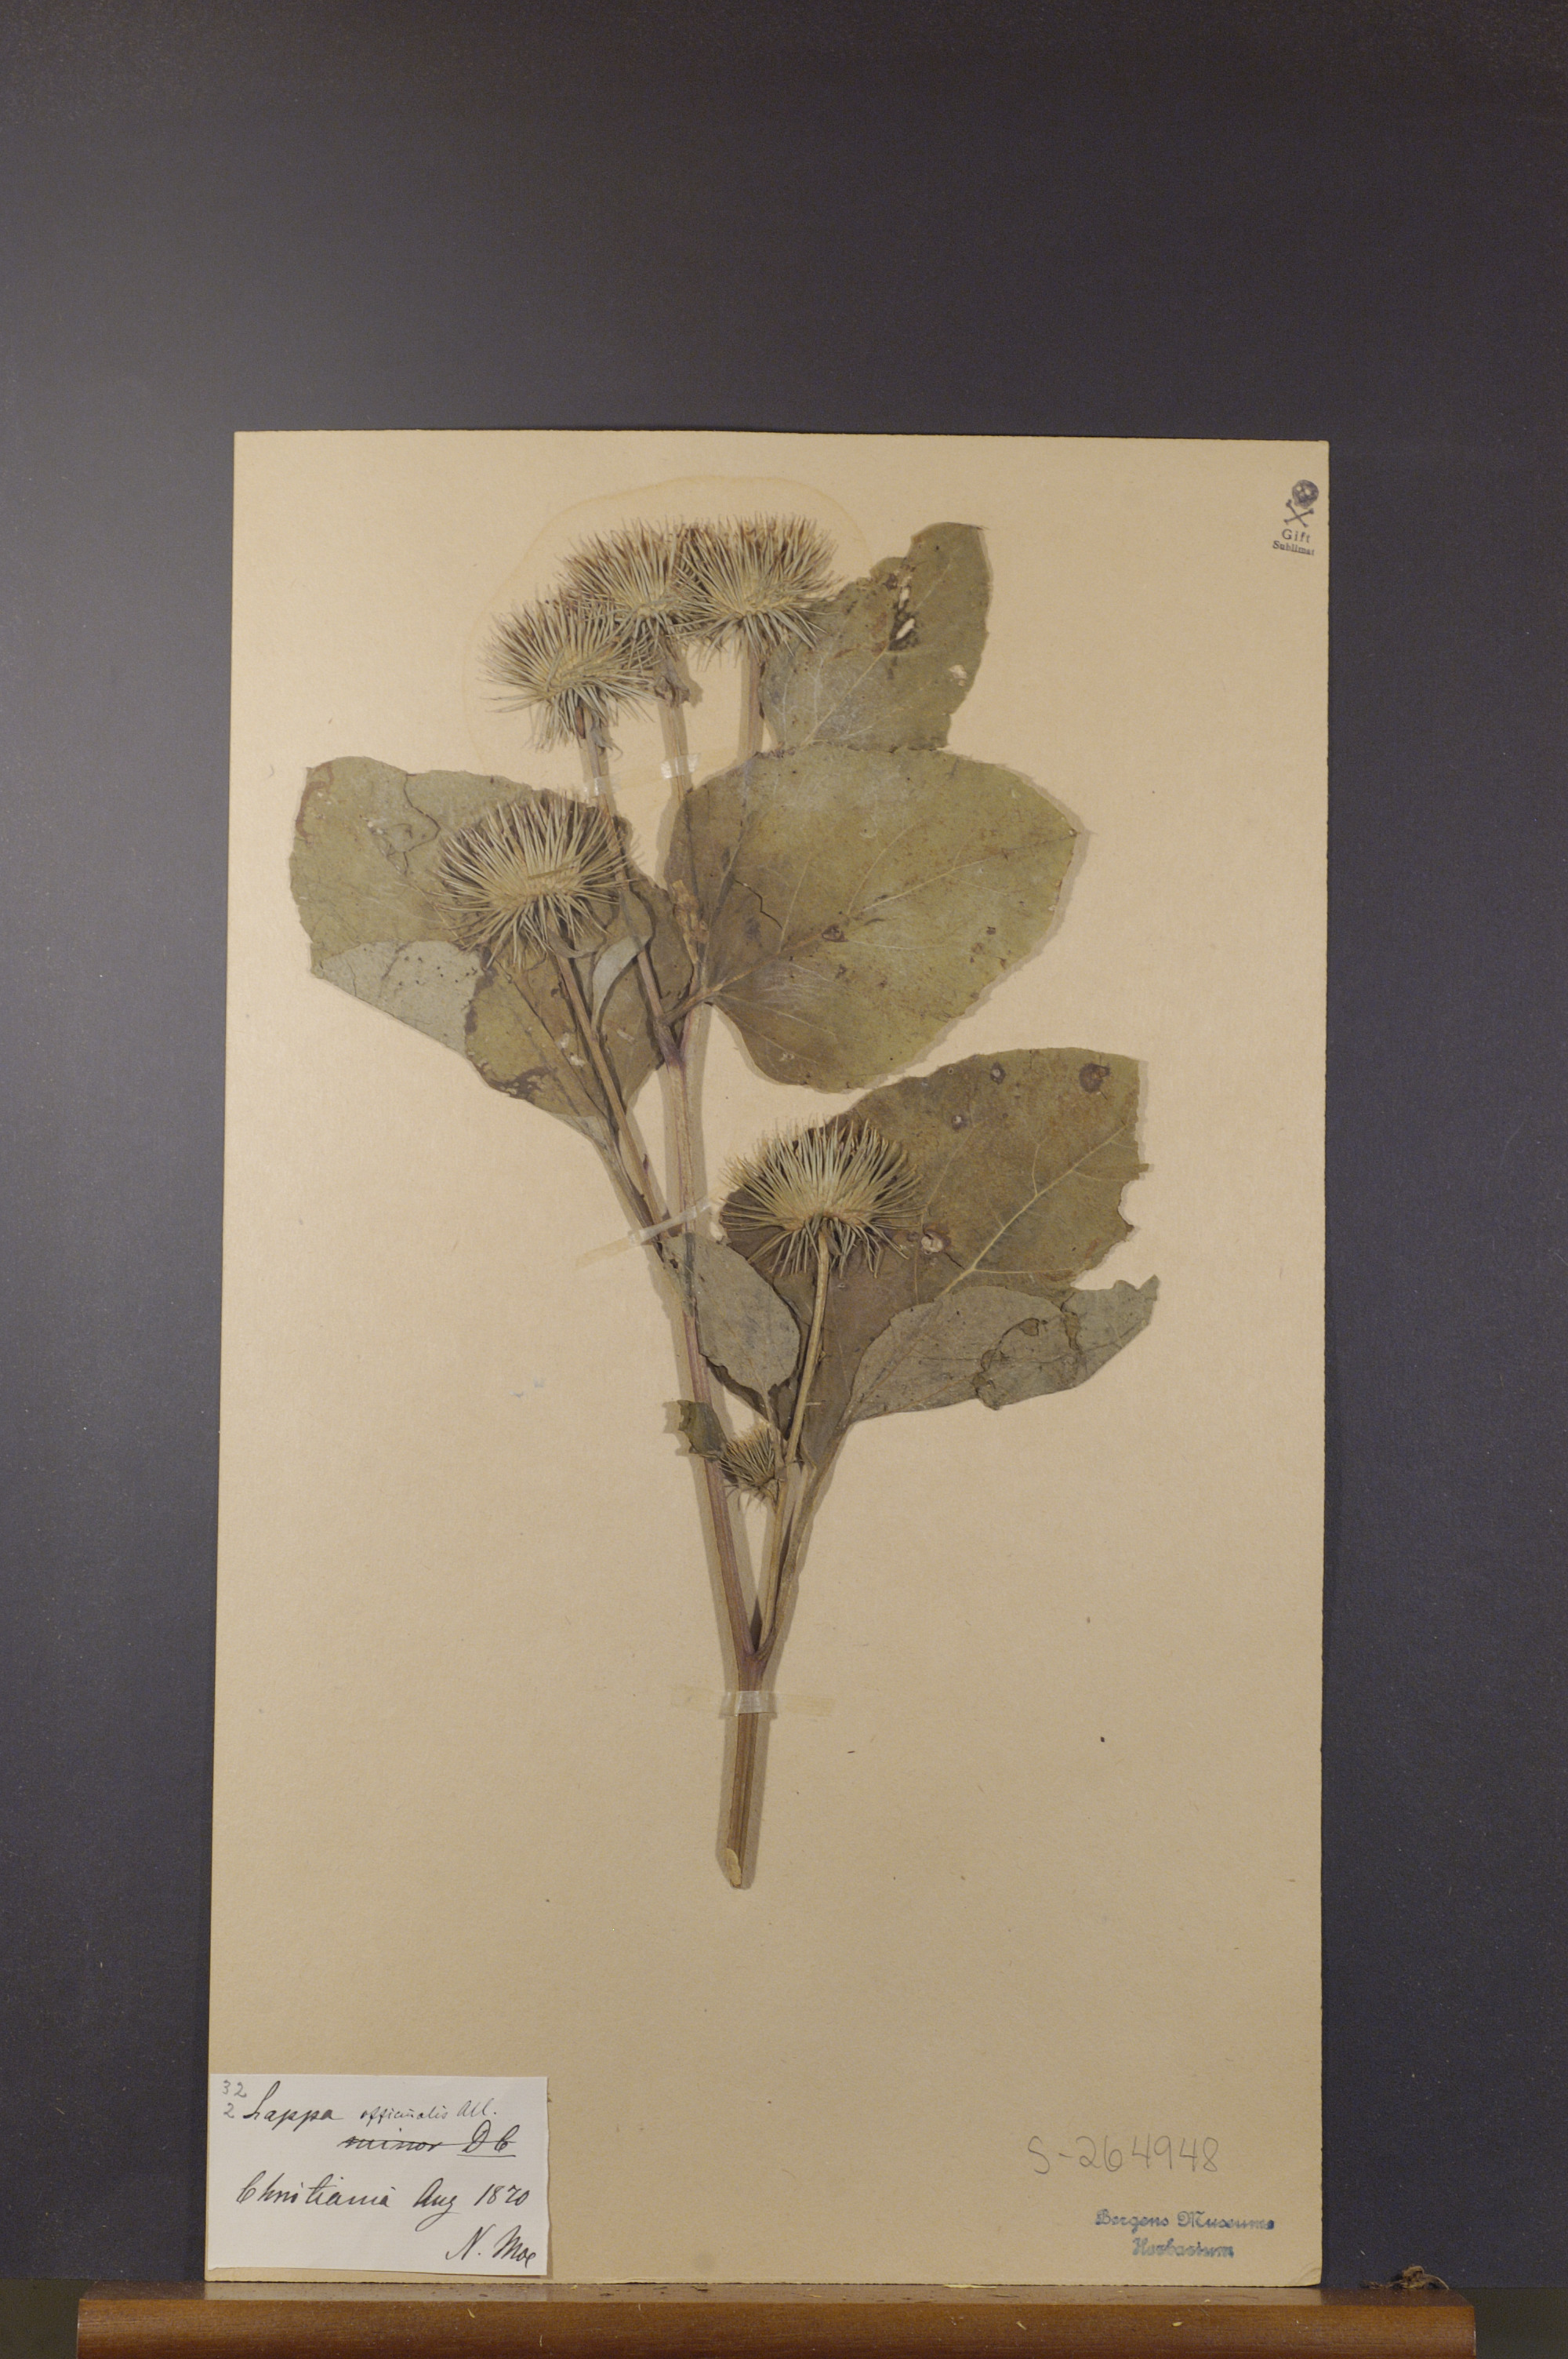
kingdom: Plantae
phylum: Tracheophyta
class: Magnoliopsida
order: Asterales
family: Asteraceae
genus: Arctium
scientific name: Arctium lappa
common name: Greater burdock
